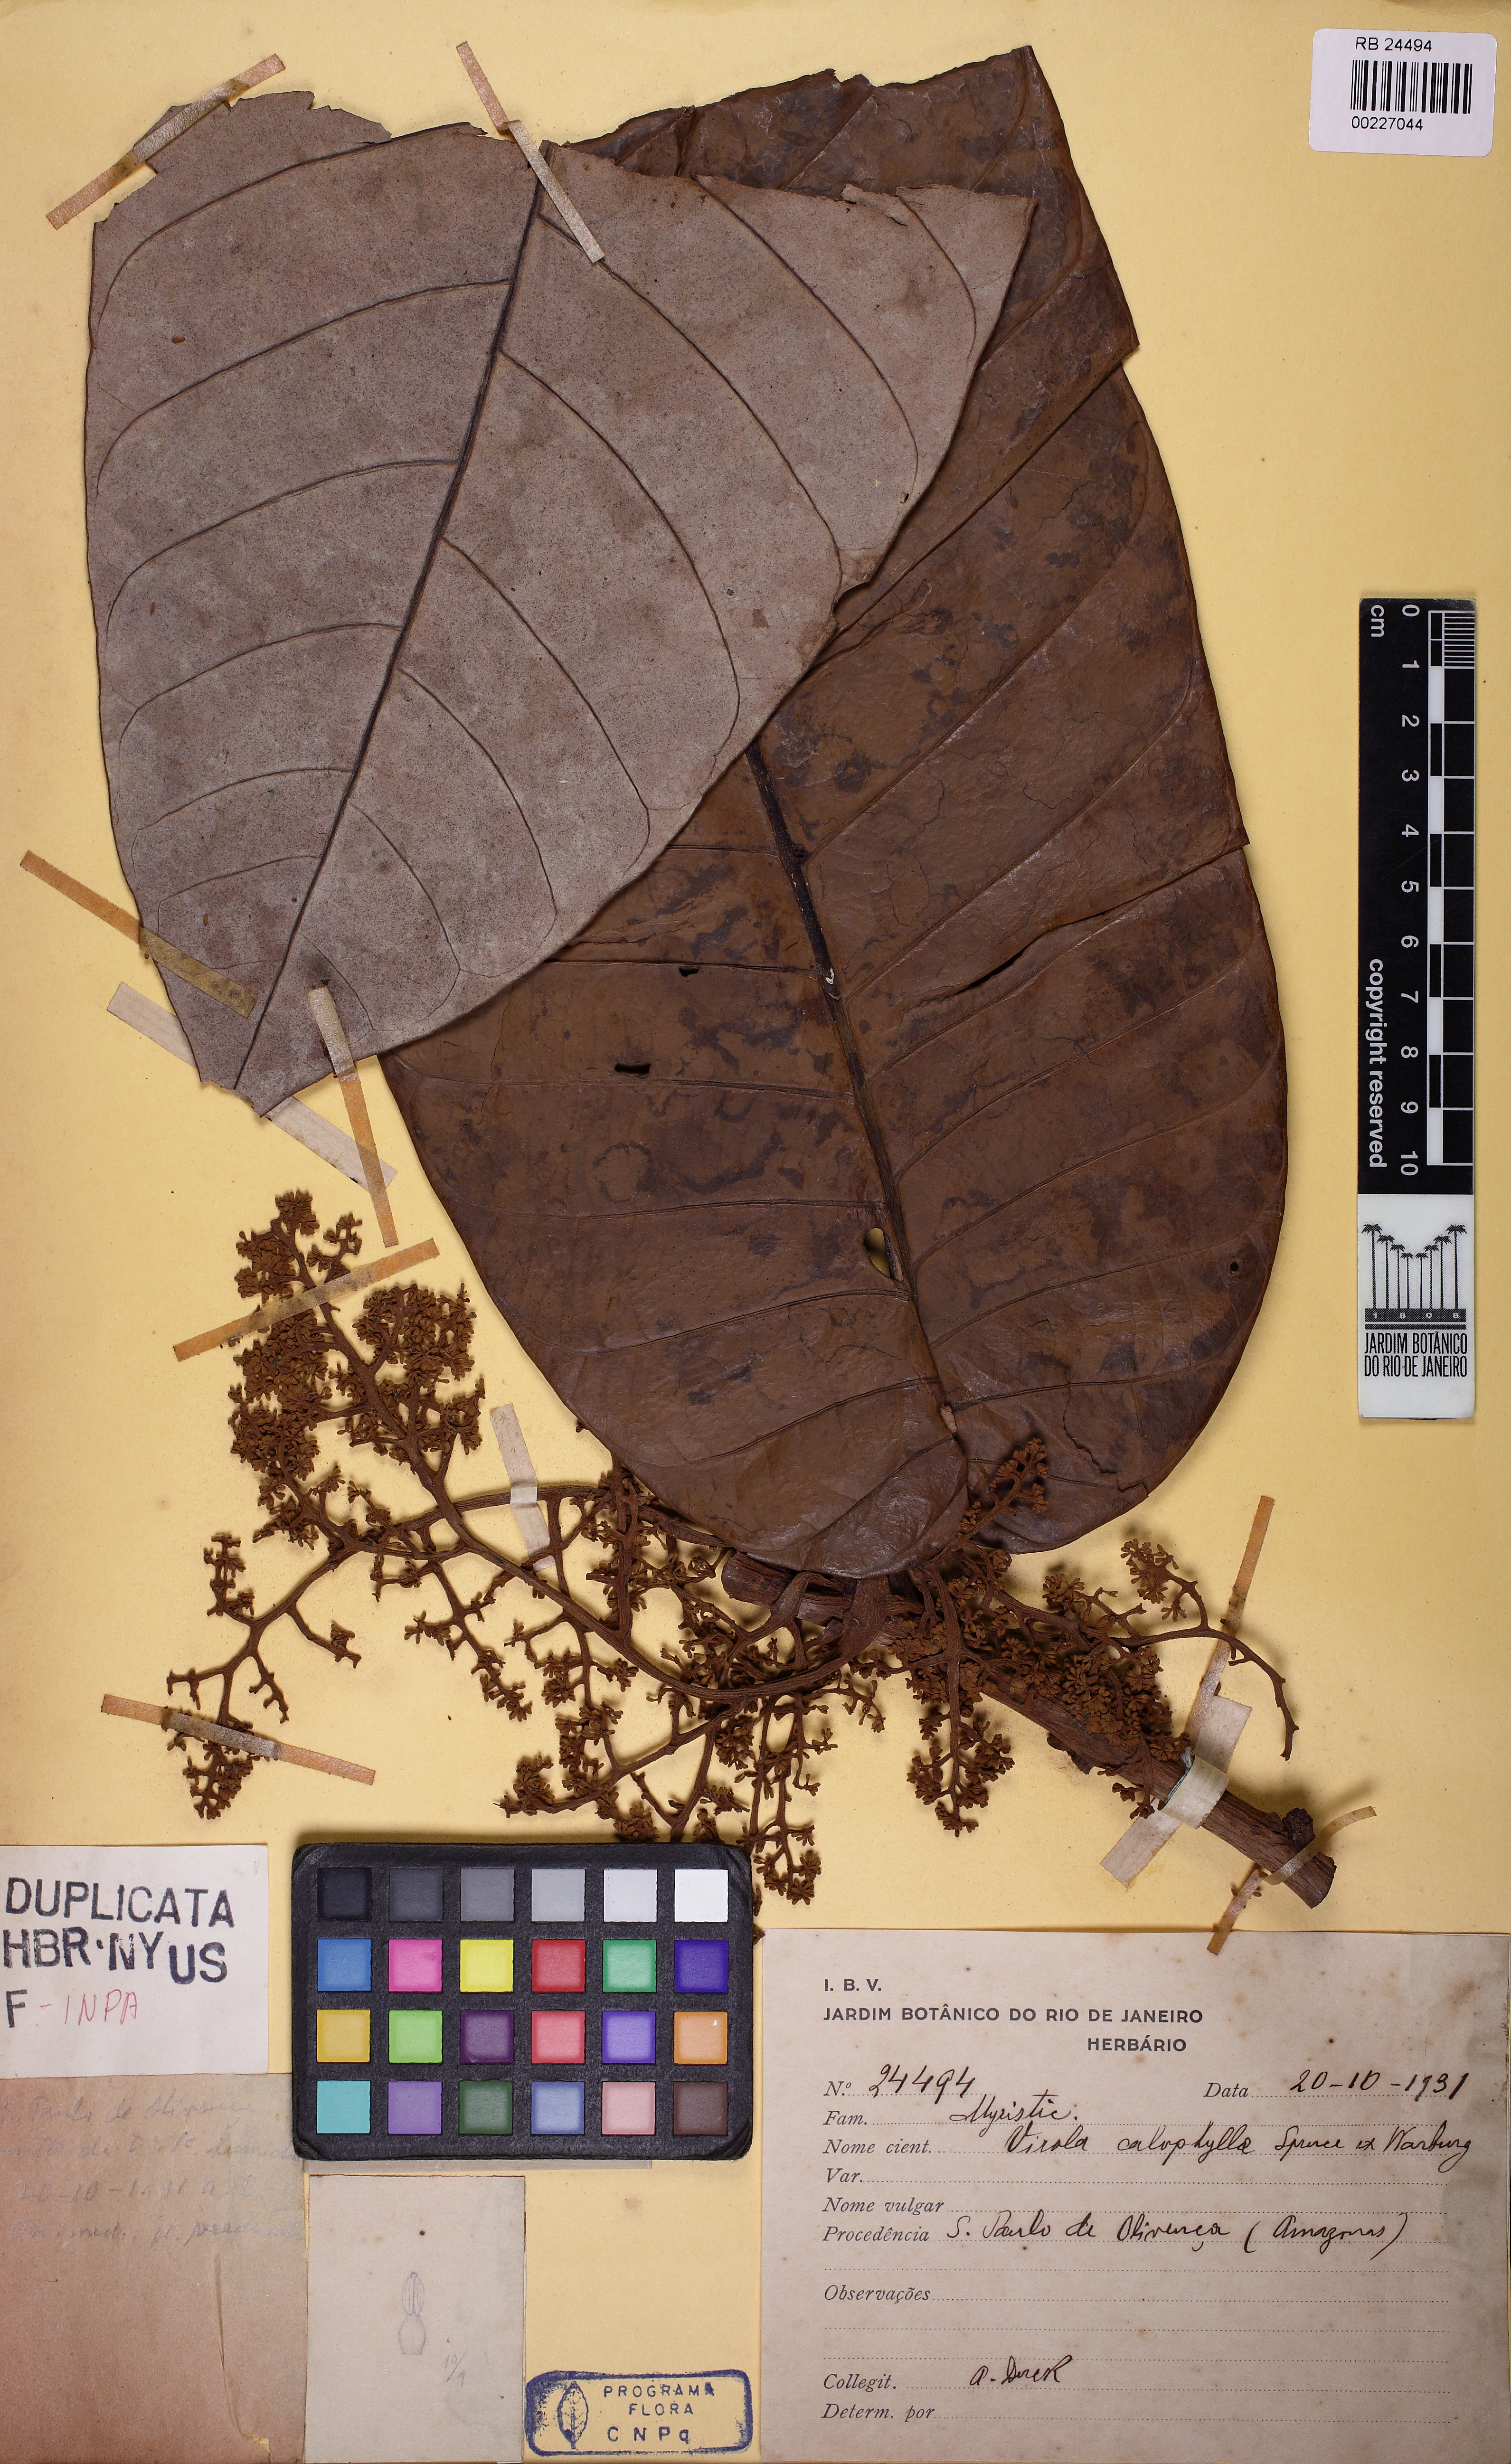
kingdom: Plantae
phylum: Tracheophyta
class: Magnoliopsida
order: Magnoliales
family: Myristicaceae
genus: Virola
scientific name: Virola calophylla
